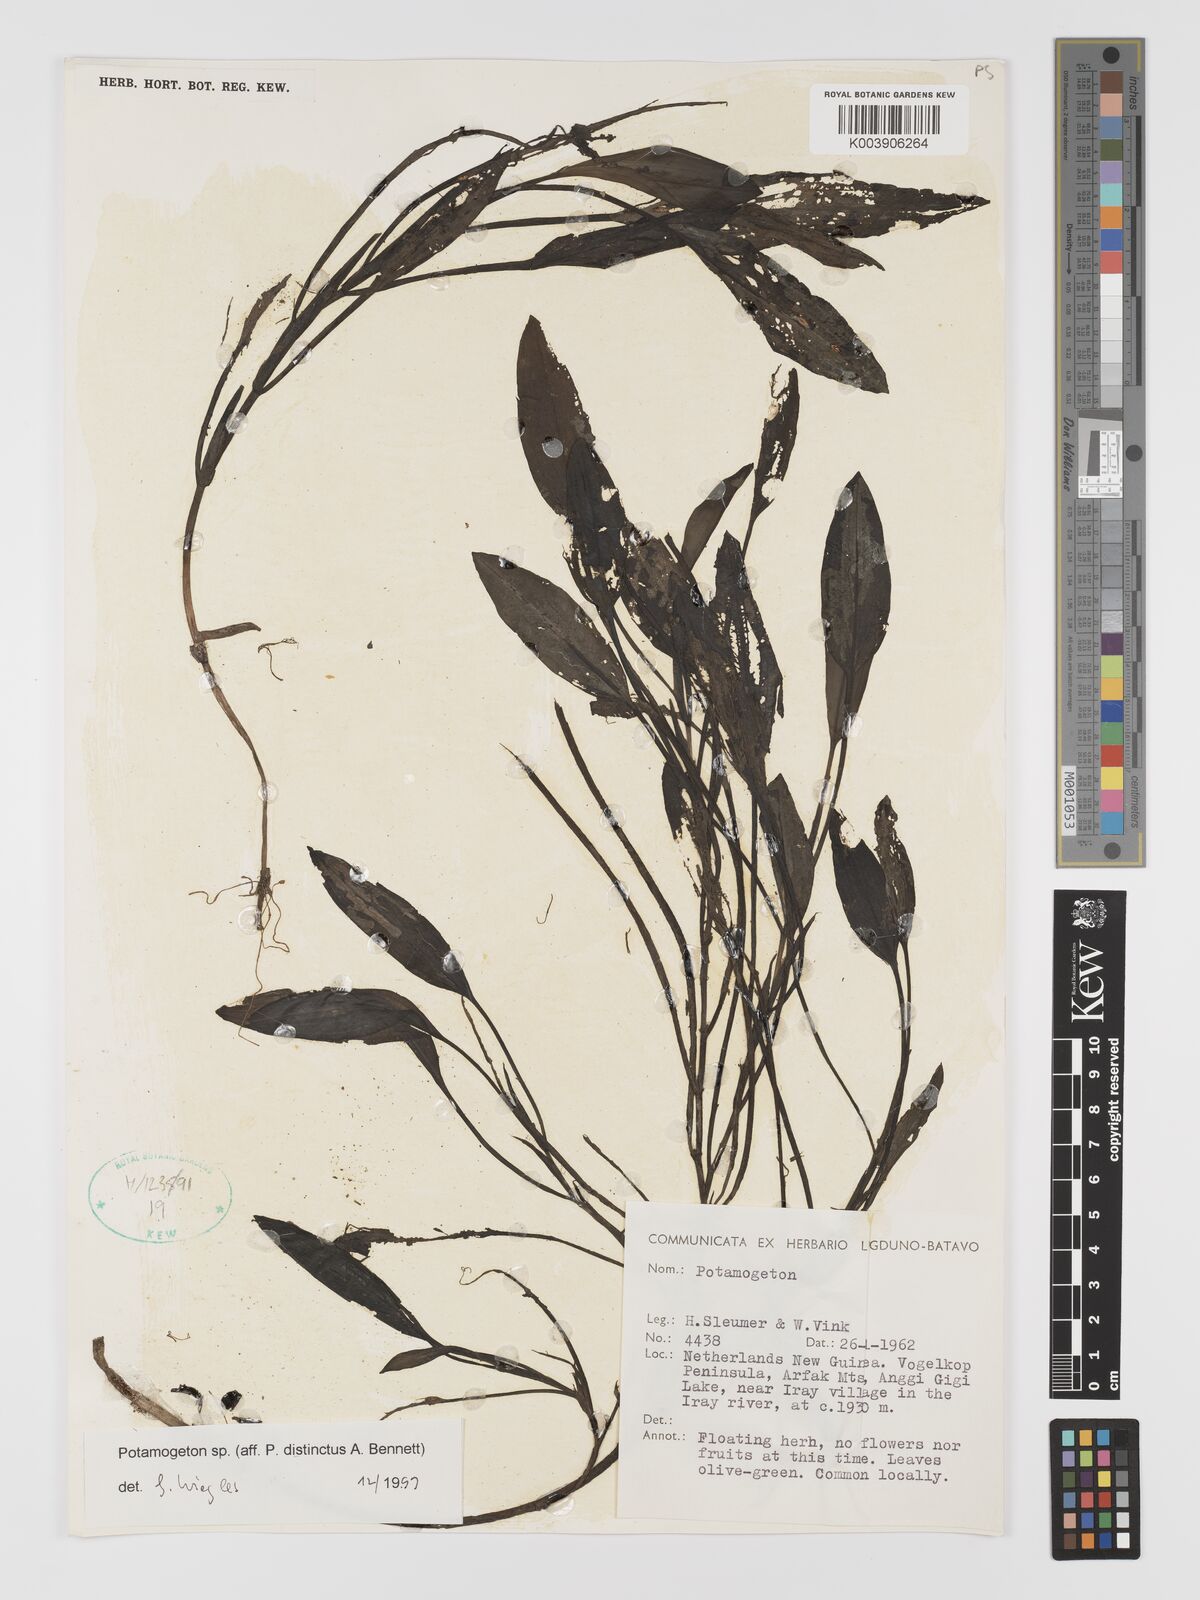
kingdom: Plantae
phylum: Tracheophyta
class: Liliopsida
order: Alismatales
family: Potamogetonaceae
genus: Potamogeton
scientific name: Potamogeton
